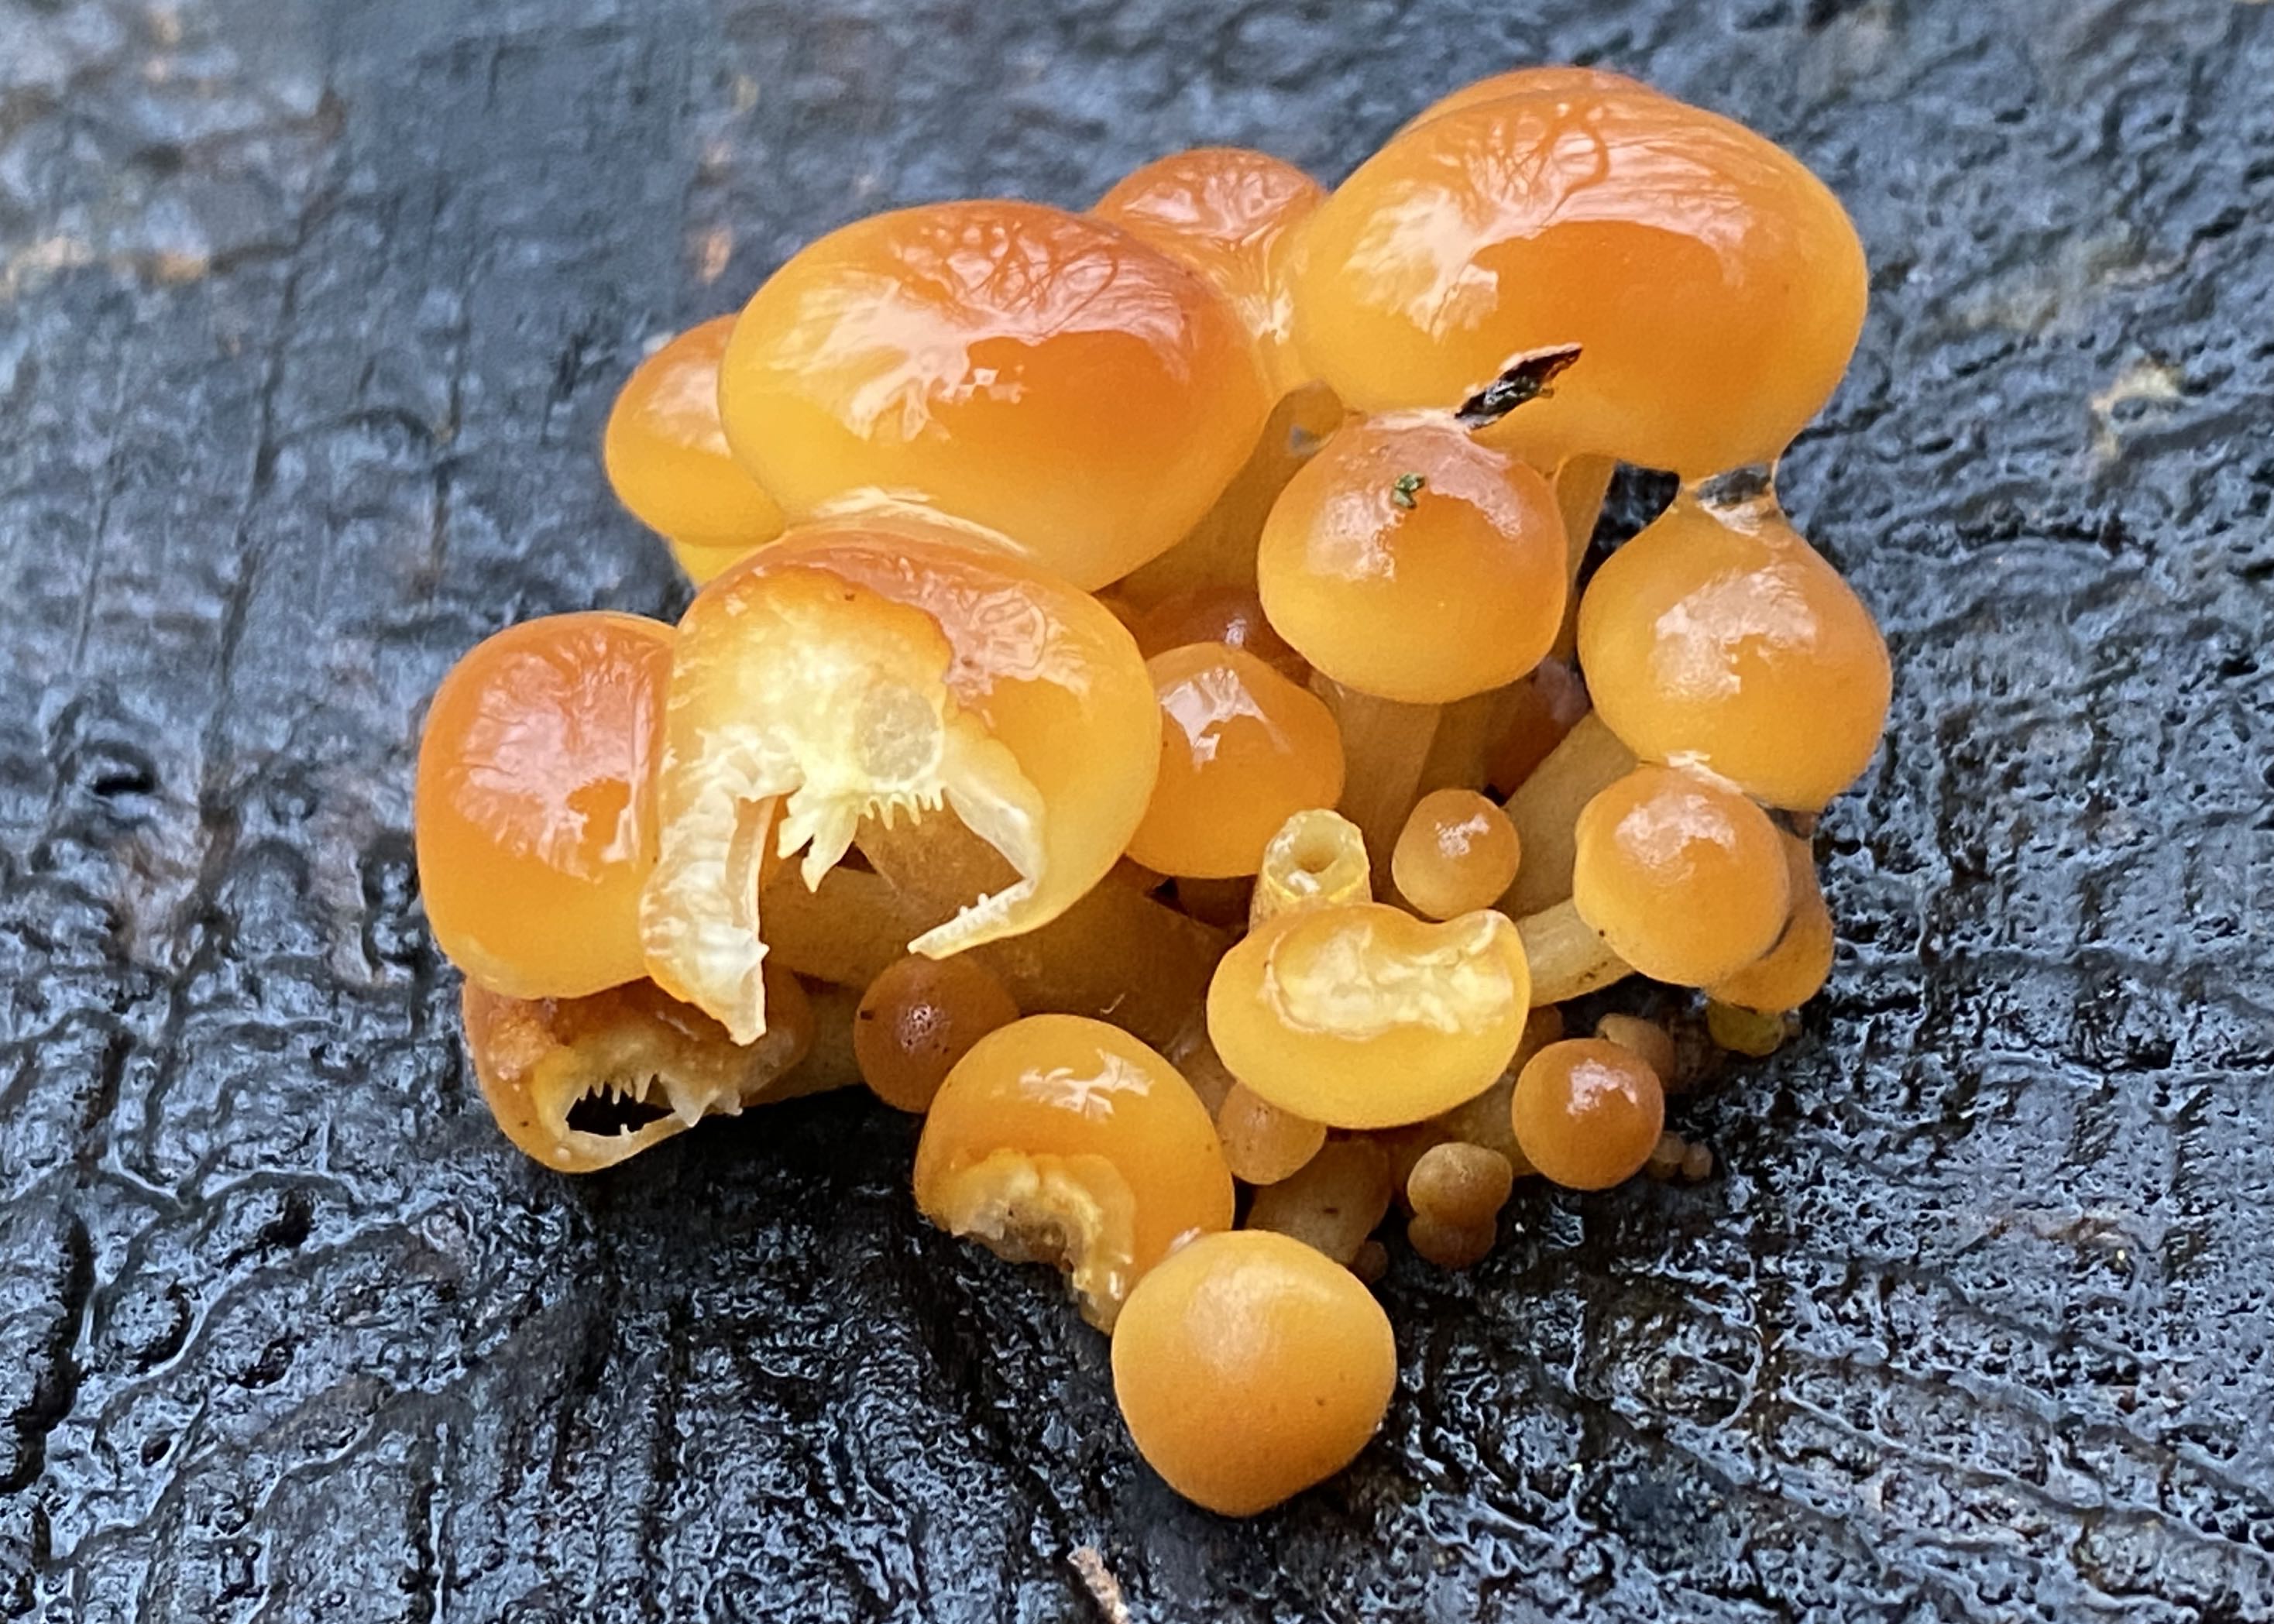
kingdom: Fungi
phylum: Basidiomycota
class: Agaricomycetes
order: Agaricales
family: Physalacriaceae
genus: Flammulina
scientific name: Flammulina velutipes
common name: gul fløjlsfod
